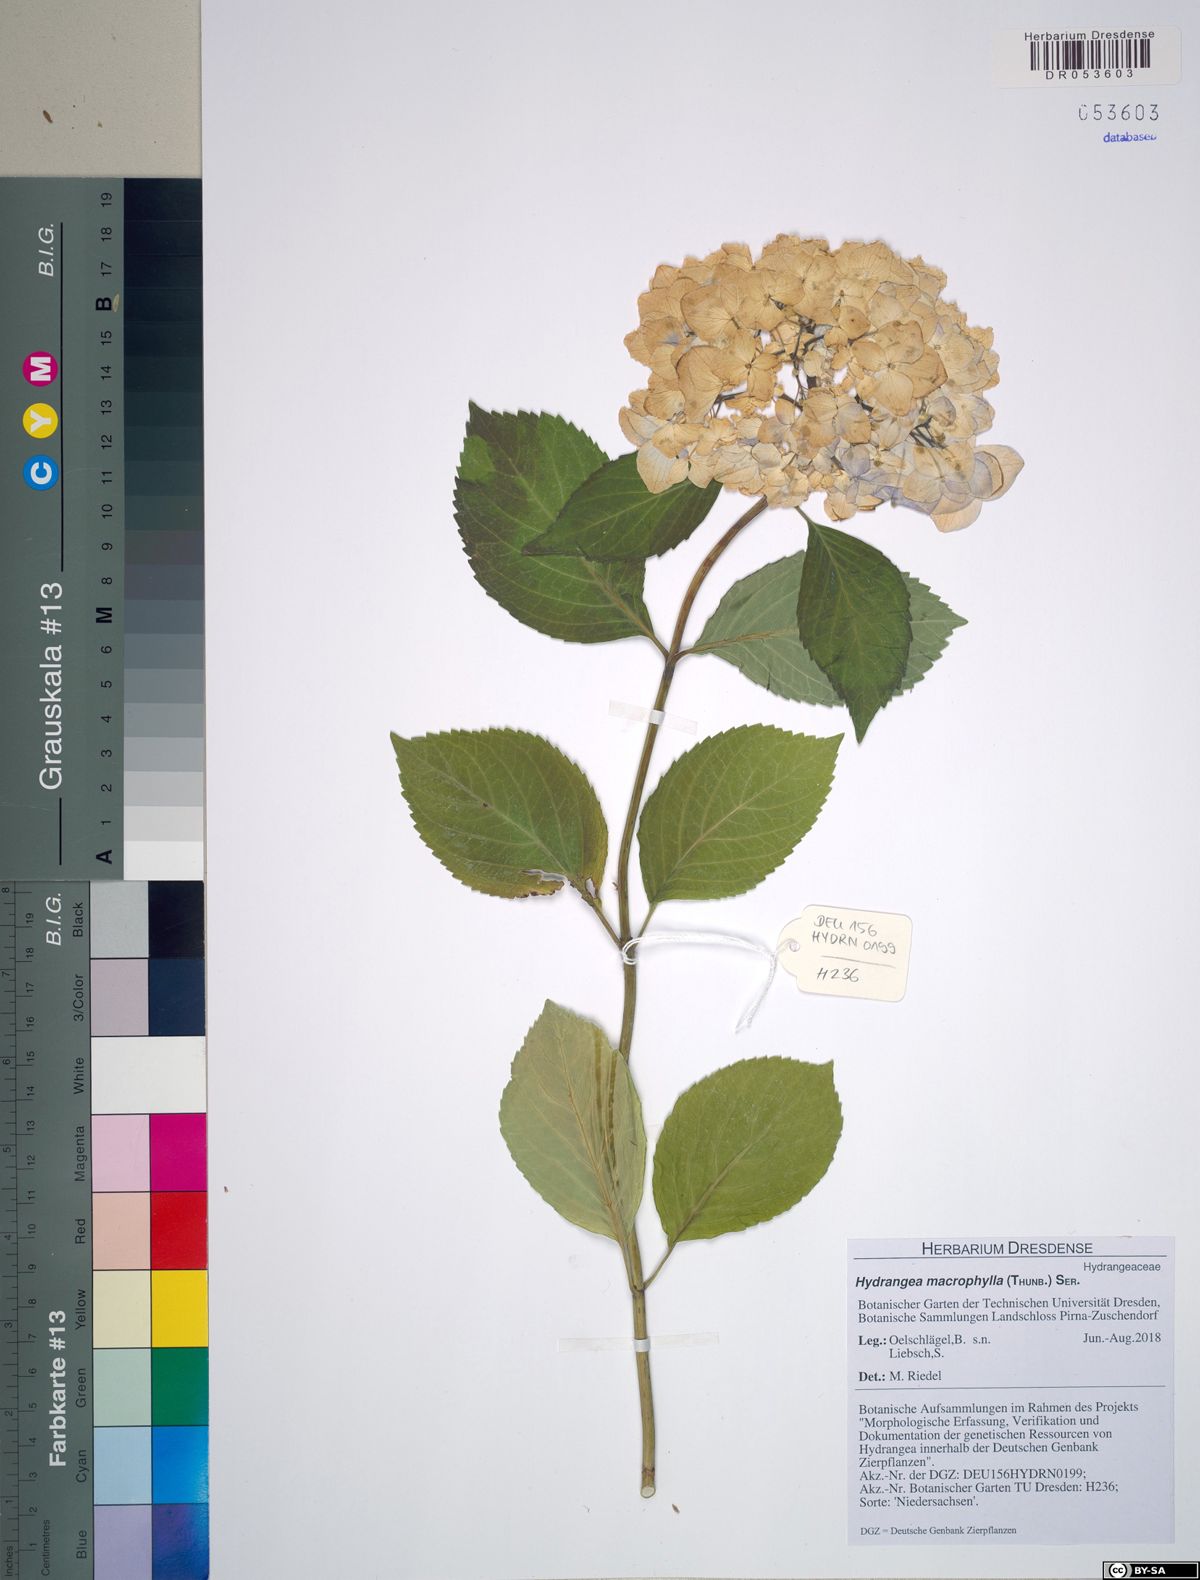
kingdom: Plantae
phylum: Tracheophyta
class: Magnoliopsida
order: Cornales
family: Hydrangeaceae
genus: Hydrangea
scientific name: Hydrangea macrophylla
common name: Hydrangea
